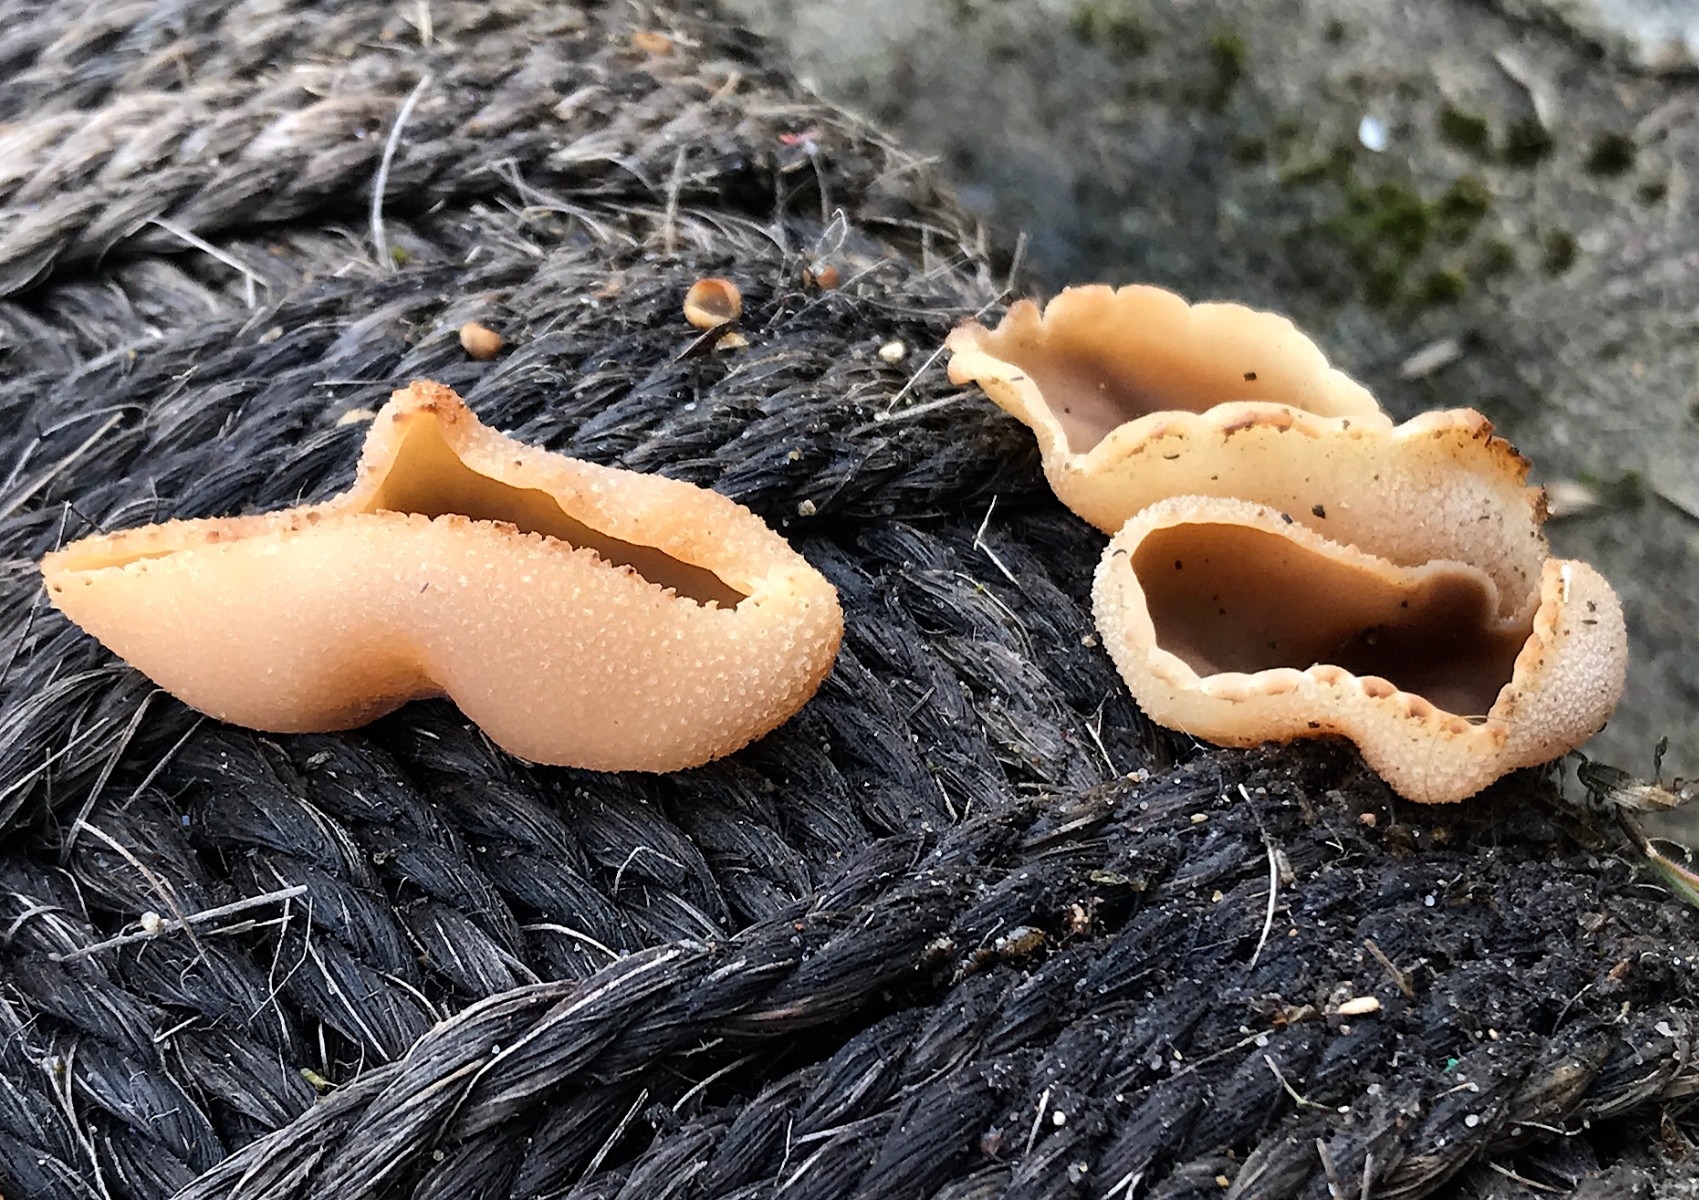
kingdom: Fungi
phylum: Ascomycota
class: Pezizomycetes
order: Pezizales
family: Pezizaceae
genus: Peziza
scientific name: Peziza
